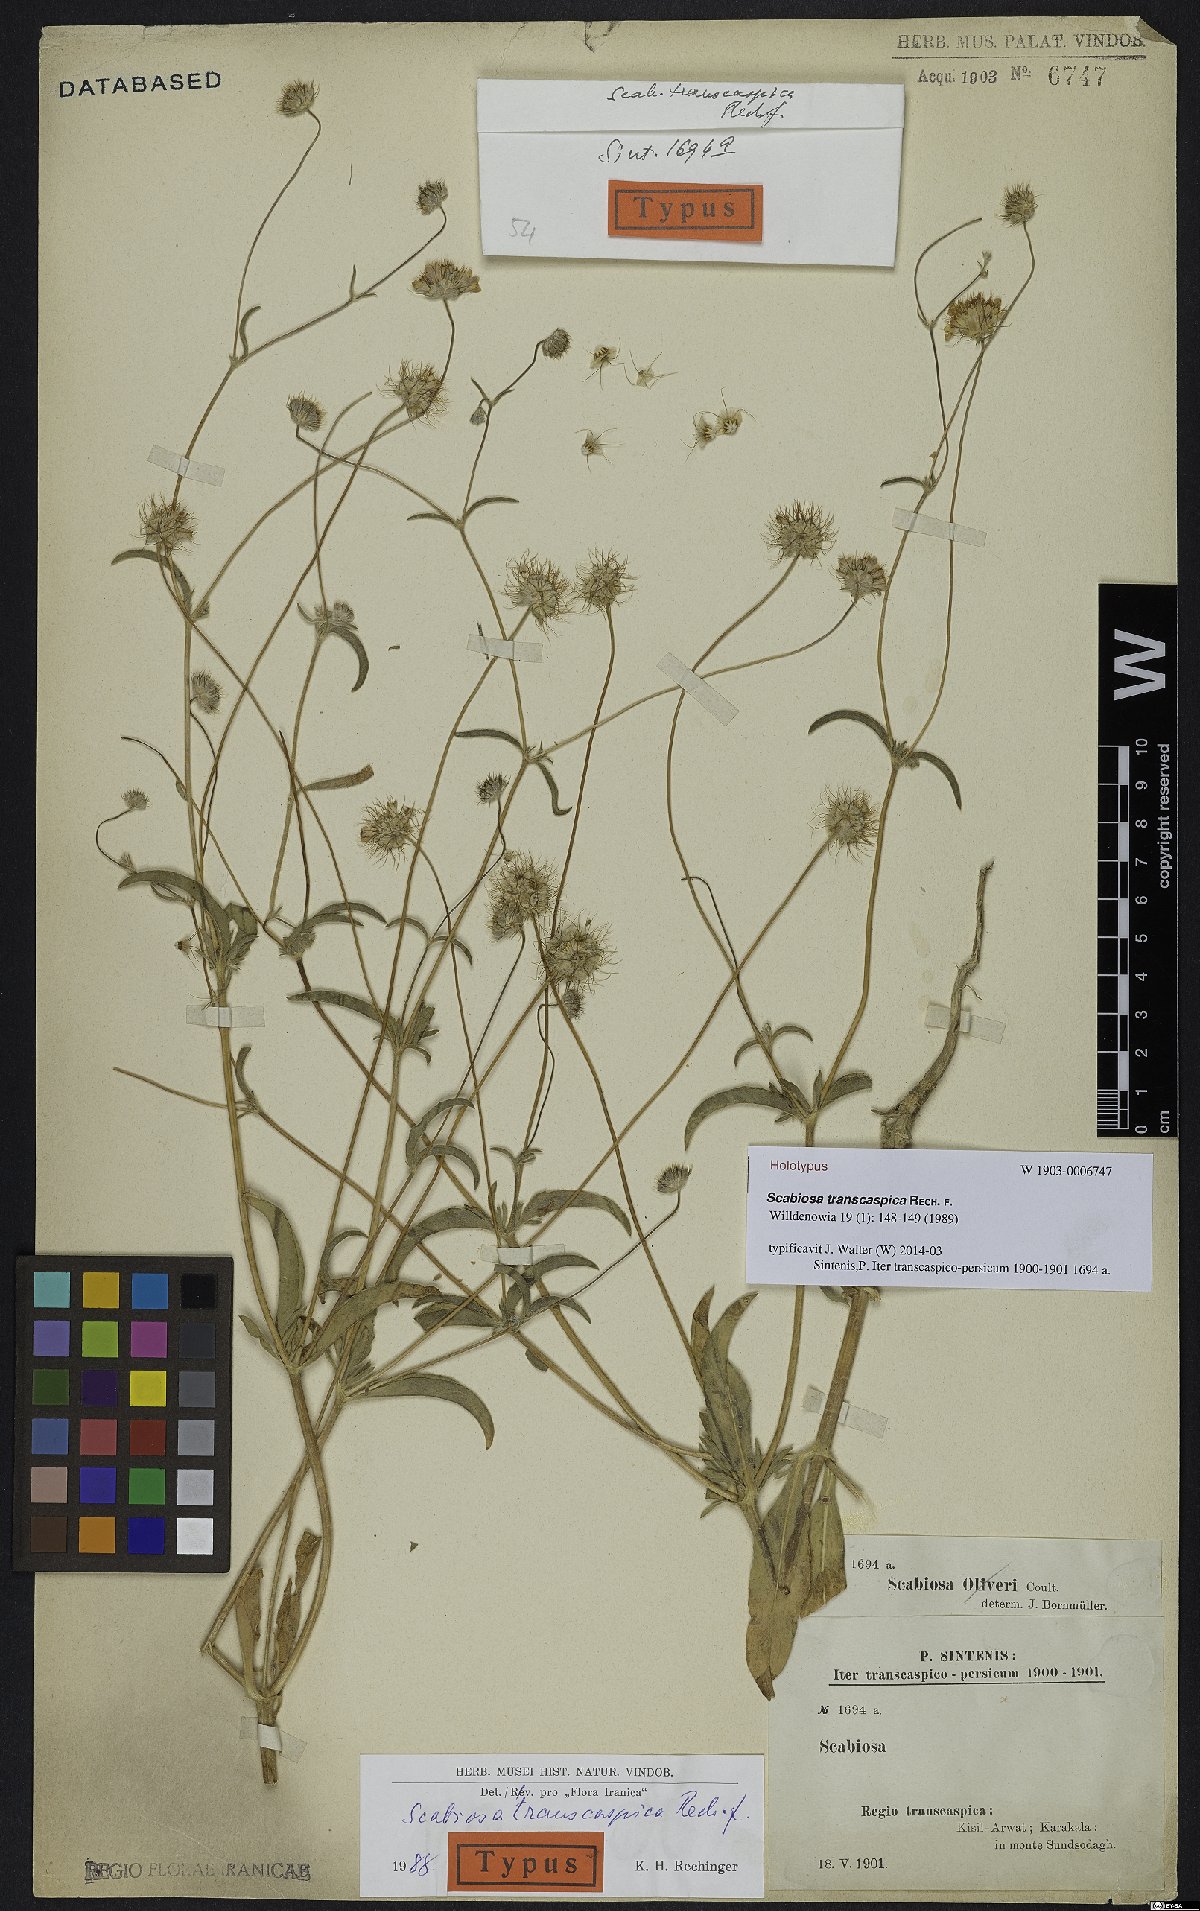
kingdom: Plantae
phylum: Tracheophyta
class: Magnoliopsida
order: Dipsacales
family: Caprifoliaceae
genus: Lomelosia
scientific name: Lomelosia transcaspica
